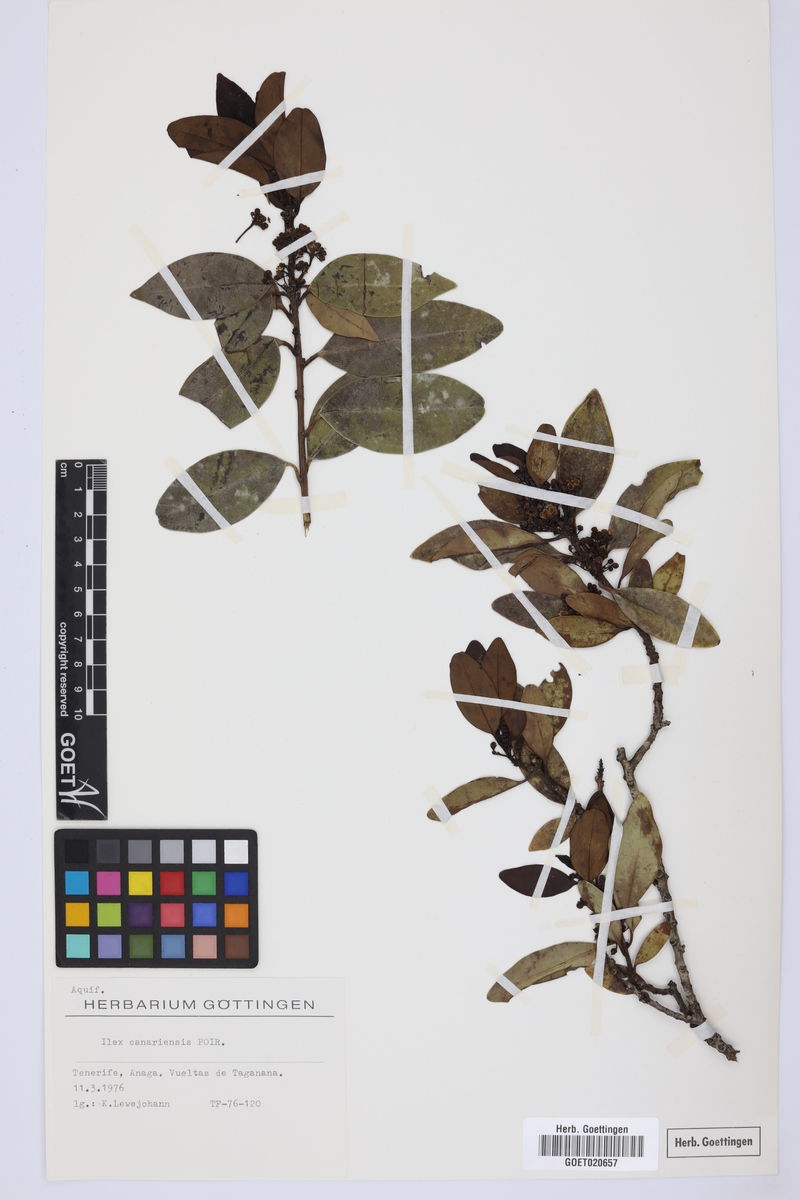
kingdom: Plantae
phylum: Tracheophyta
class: Magnoliopsida
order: Aquifoliales
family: Aquifoliaceae
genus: Ilex
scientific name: Ilex canariensis
